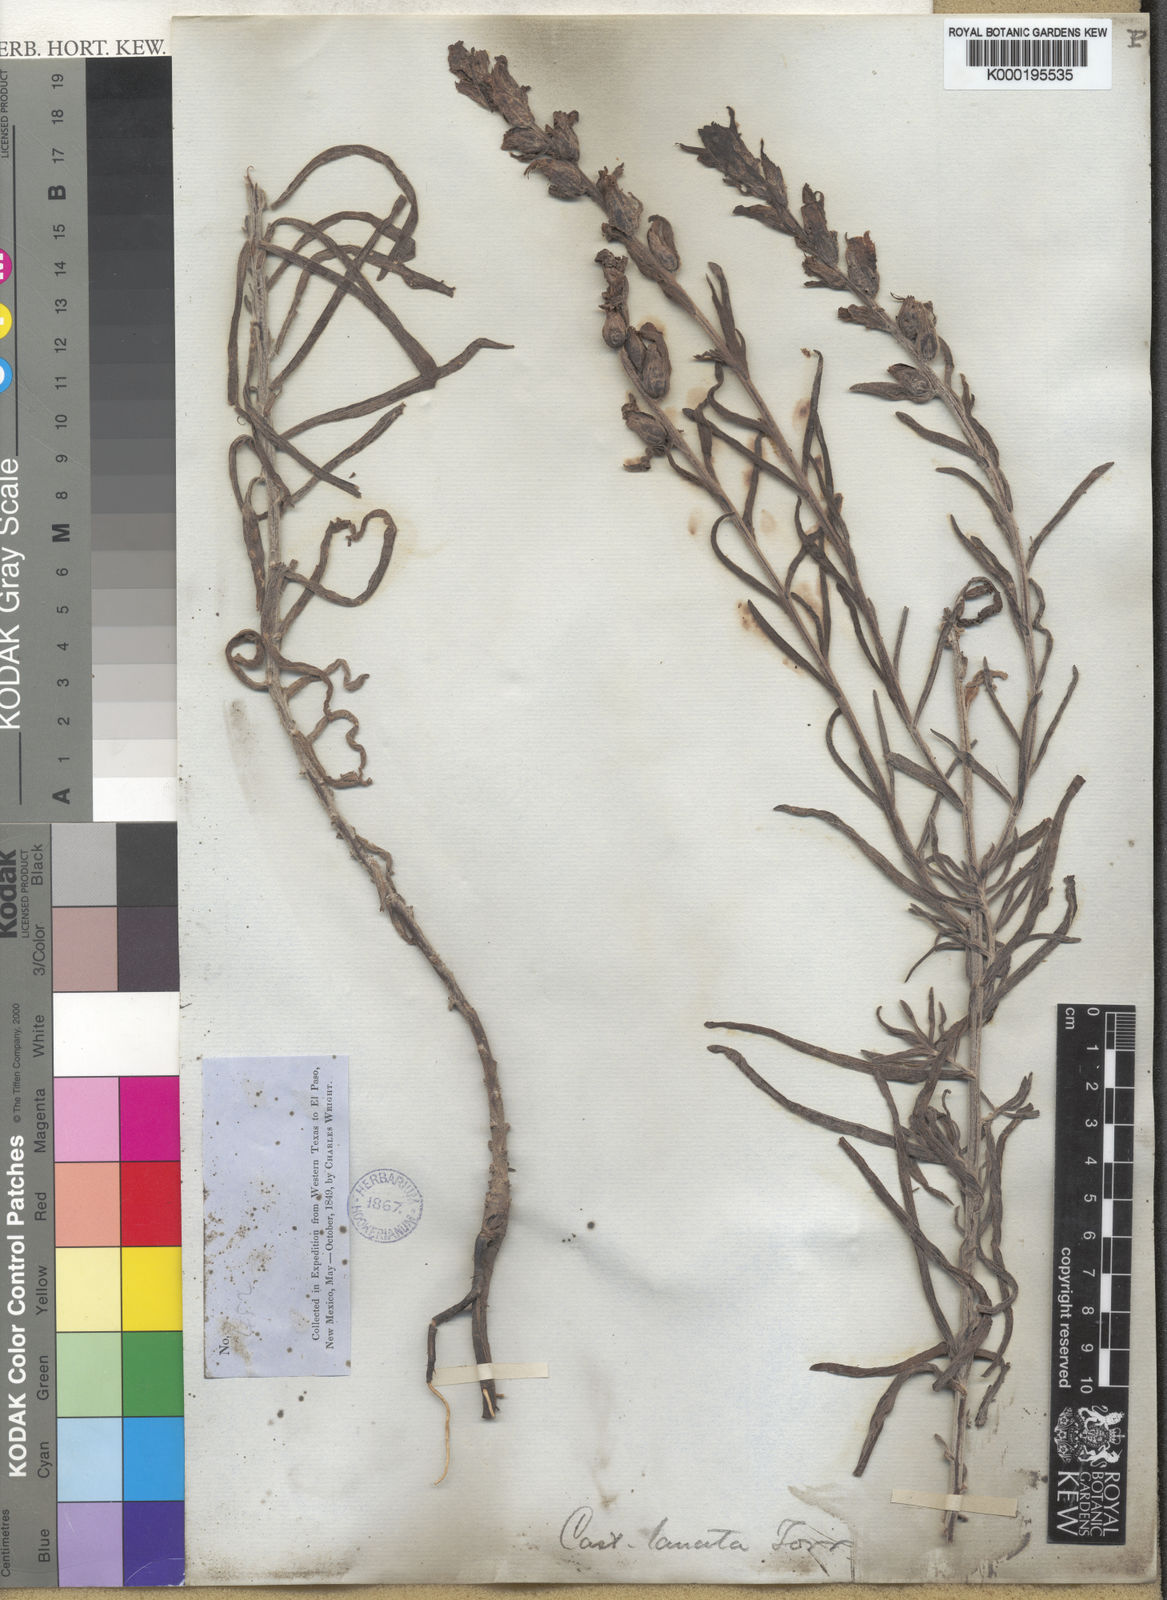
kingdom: Plantae
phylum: Tracheophyta
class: Magnoliopsida
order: Lamiales
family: Orobanchaceae
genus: Castilleja
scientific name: Castilleja lanata
